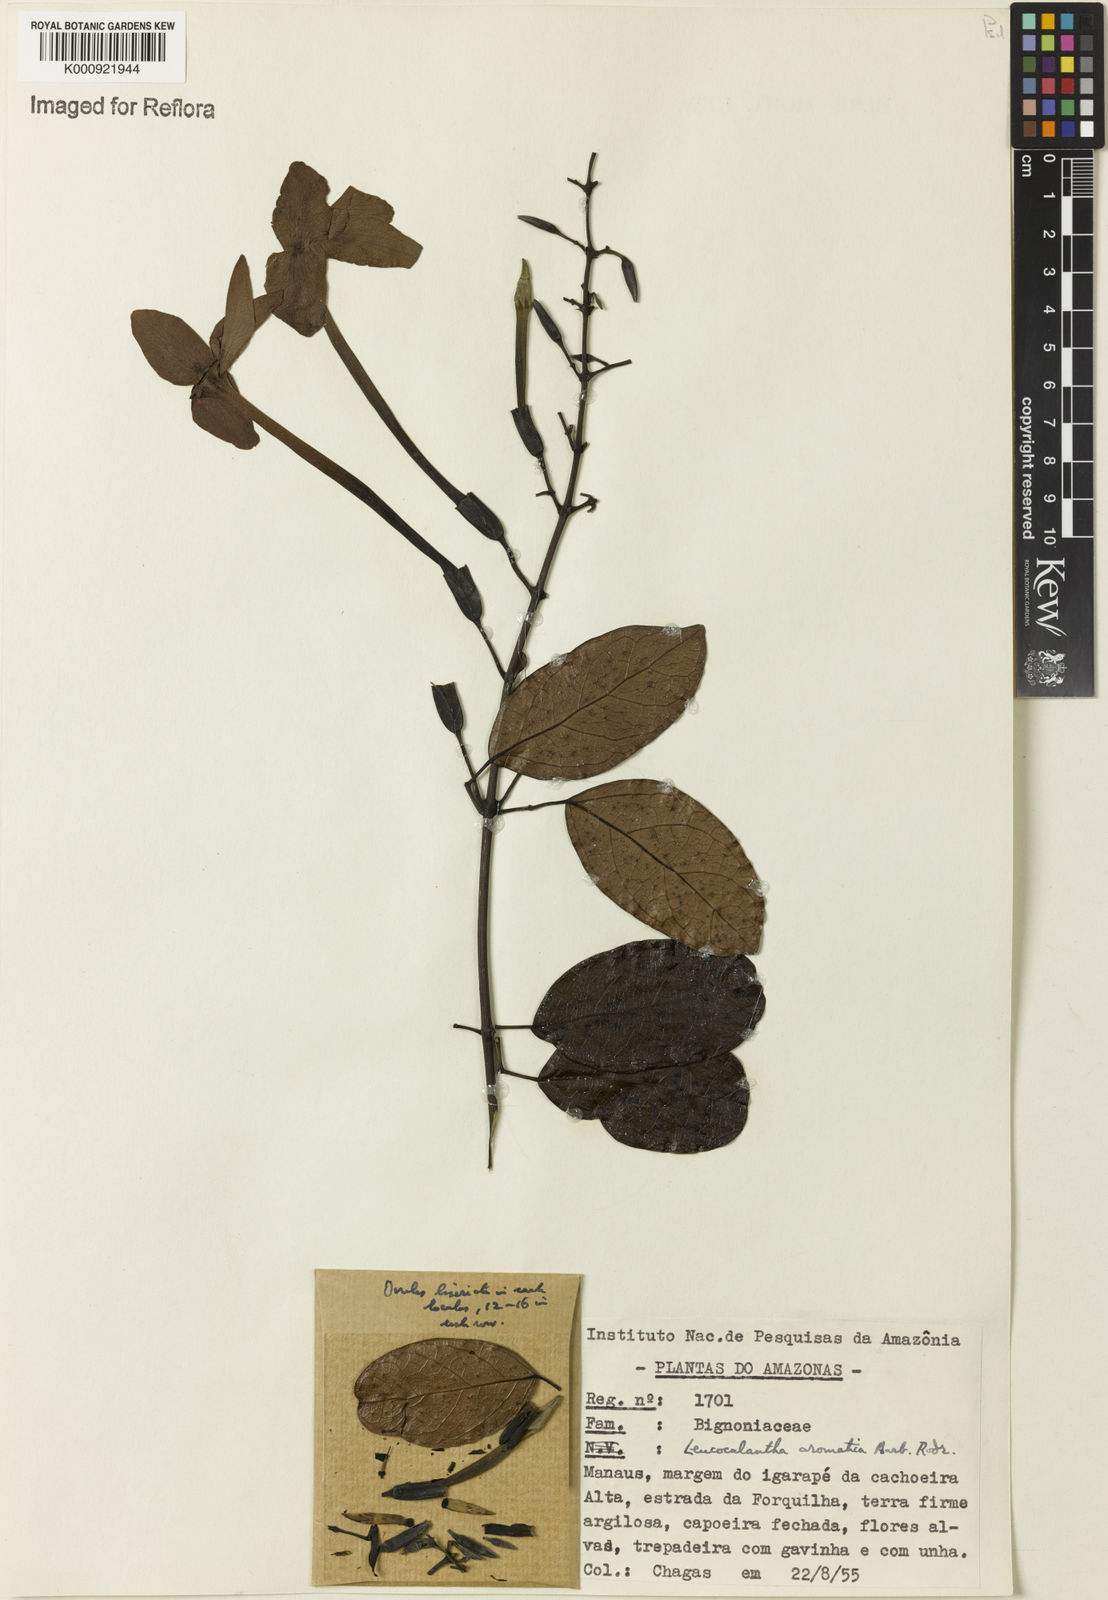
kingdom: Plantae
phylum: Tracheophyta
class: Magnoliopsida
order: Lamiales
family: Bignoniaceae
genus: Pachyptera
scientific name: Pachyptera aromatica
